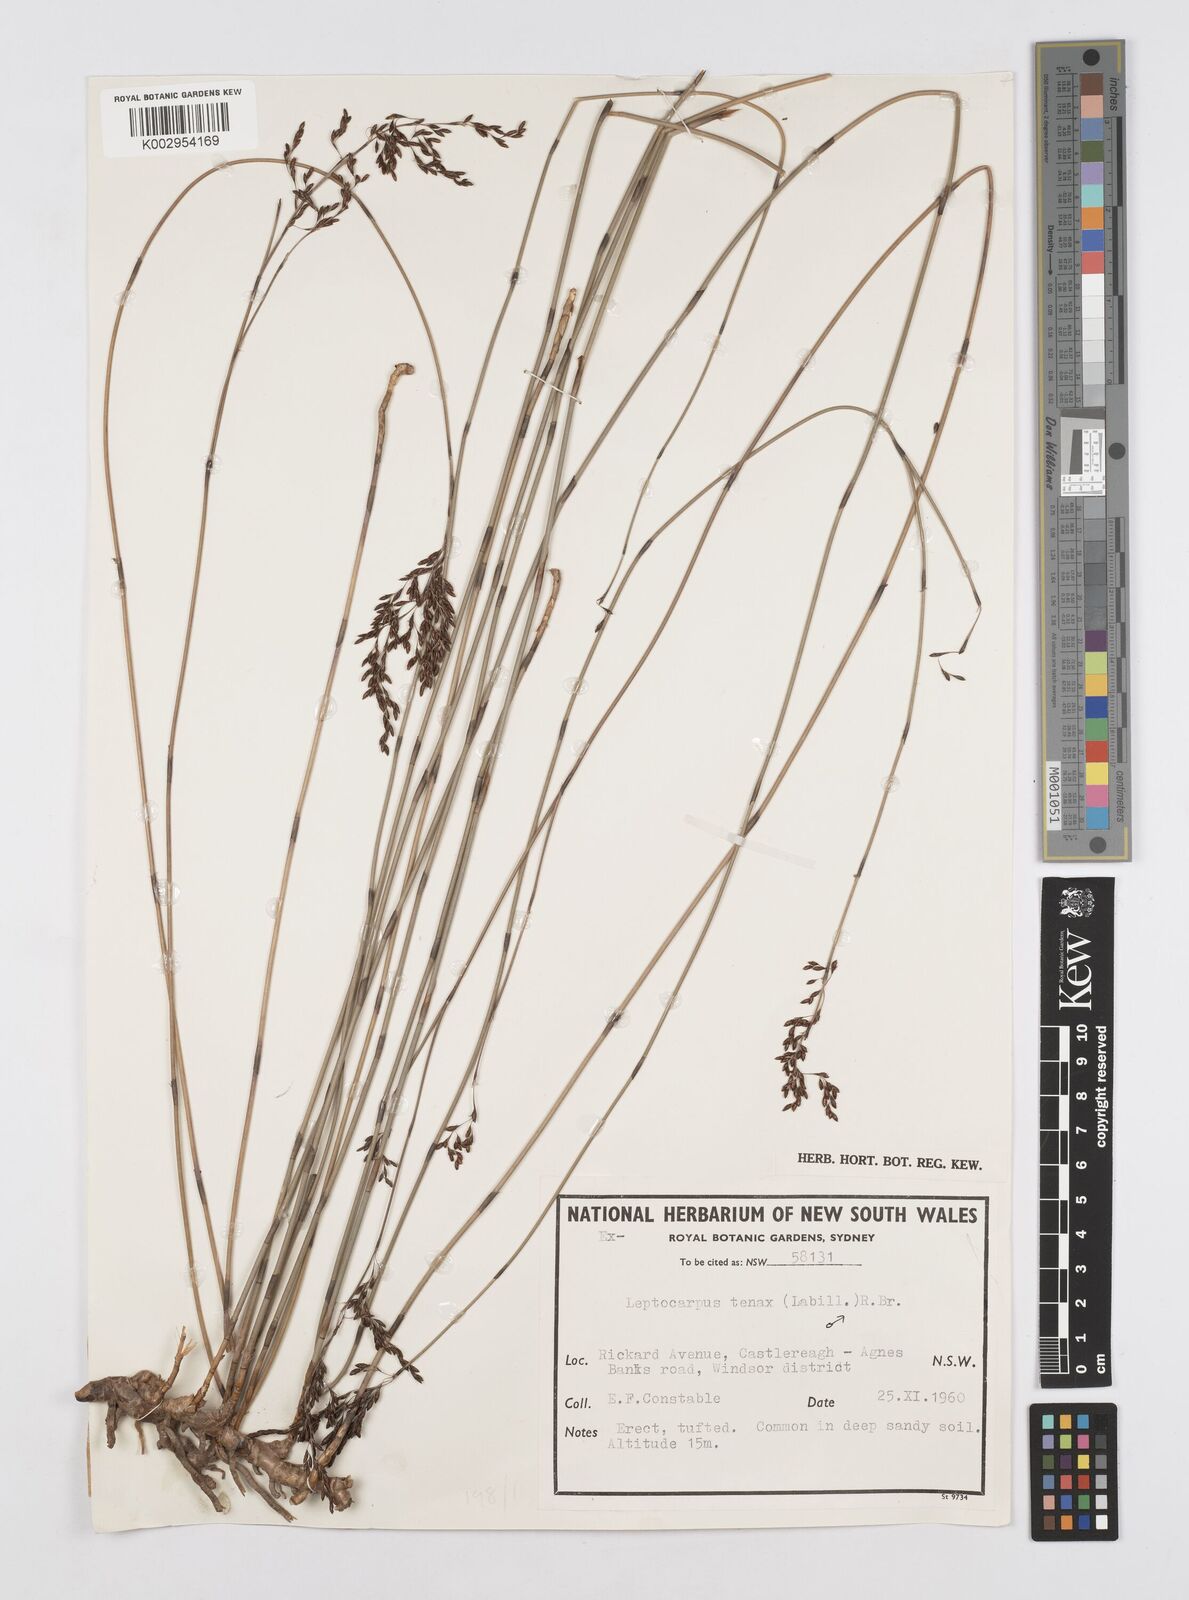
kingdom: Plantae
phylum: Tracheophyta
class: Liliopsida
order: Poales
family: Restionaceae
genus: Leptocarpus
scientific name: Leptocarpus tenax
